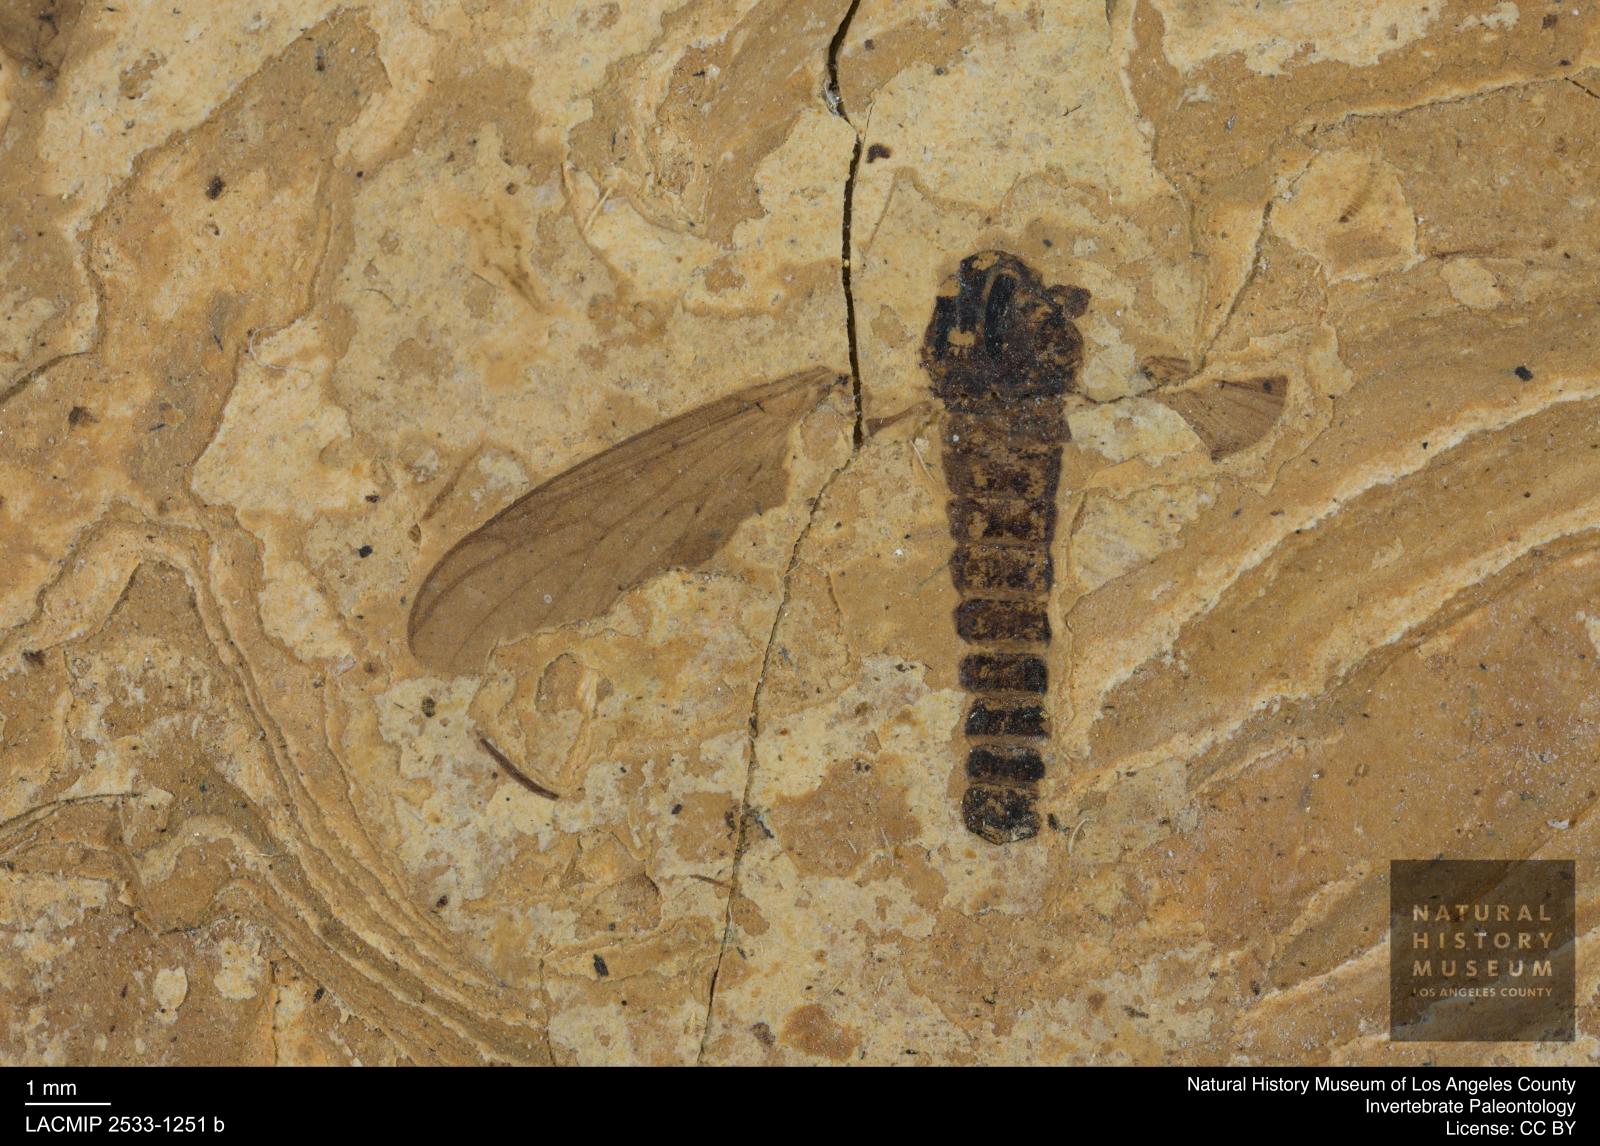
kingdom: Animalia
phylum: Arthropoda
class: Insecta
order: Diptera
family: Bibionidae
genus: Plecia
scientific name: Plecia
